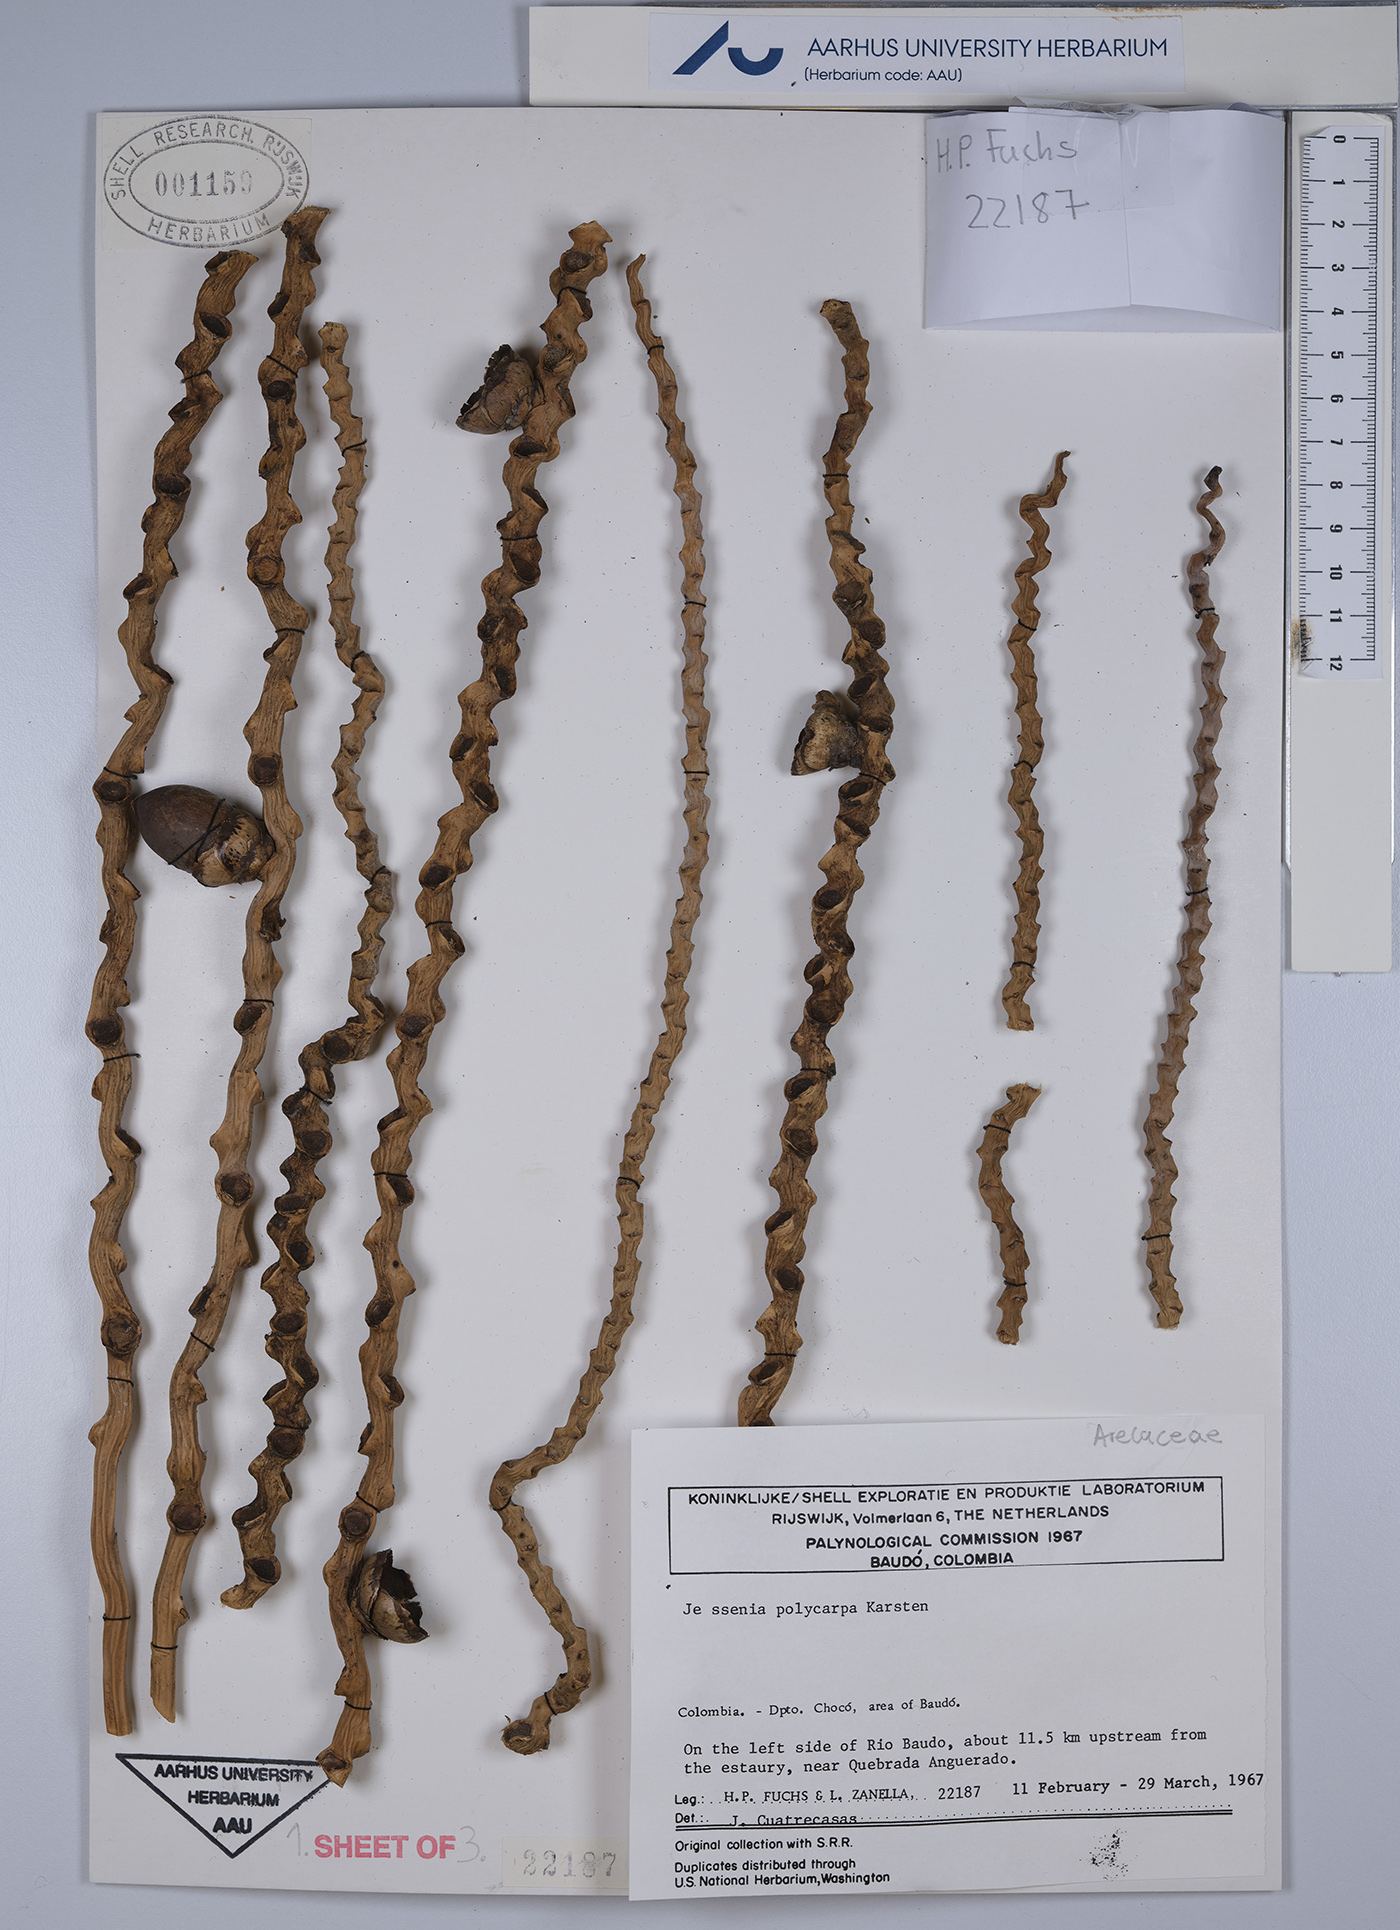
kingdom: Plantae
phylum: Tracheophyta
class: Liliopsida
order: Arecales
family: Arecaceae
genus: Oenocarpus
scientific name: Oenocarpus bataua
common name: Bataua palm
